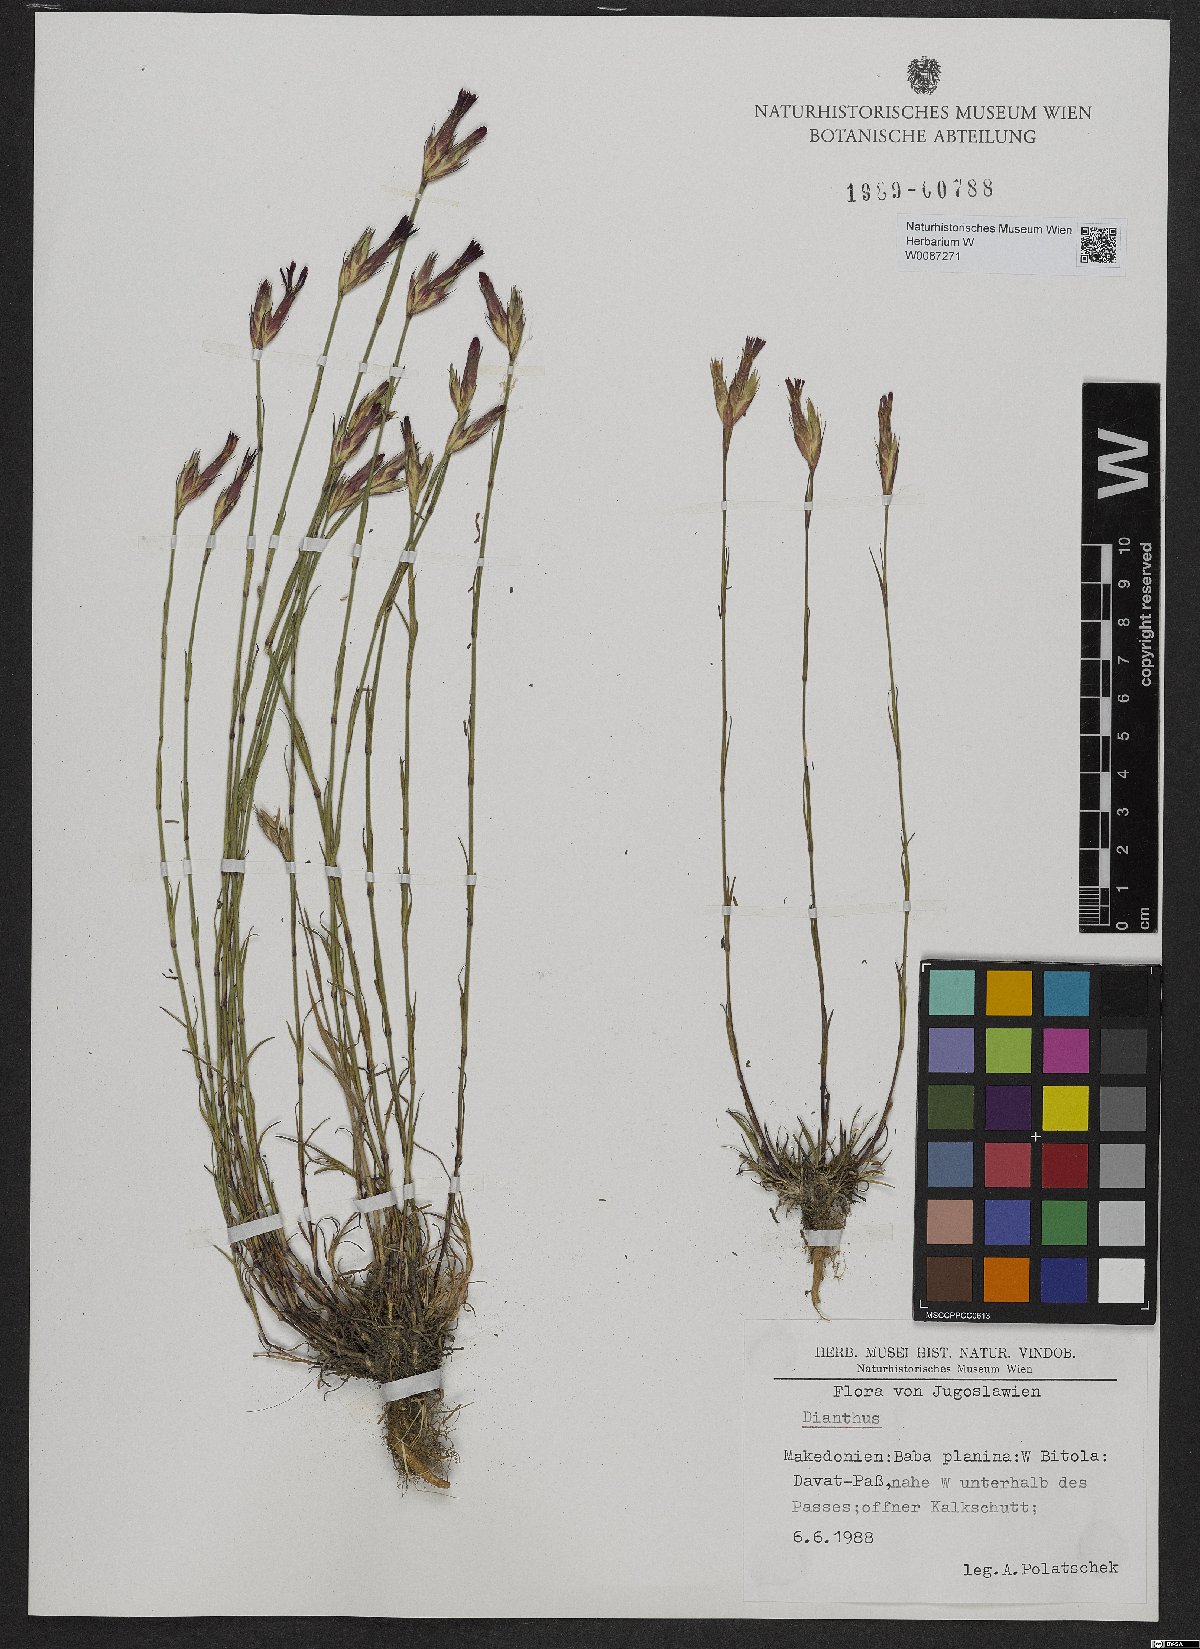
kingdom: Plantae
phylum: Tracheophyta
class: Magnoliopsida
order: Caryophyllales
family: Caryophyllaceae
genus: Dianthus
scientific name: Dianthus
